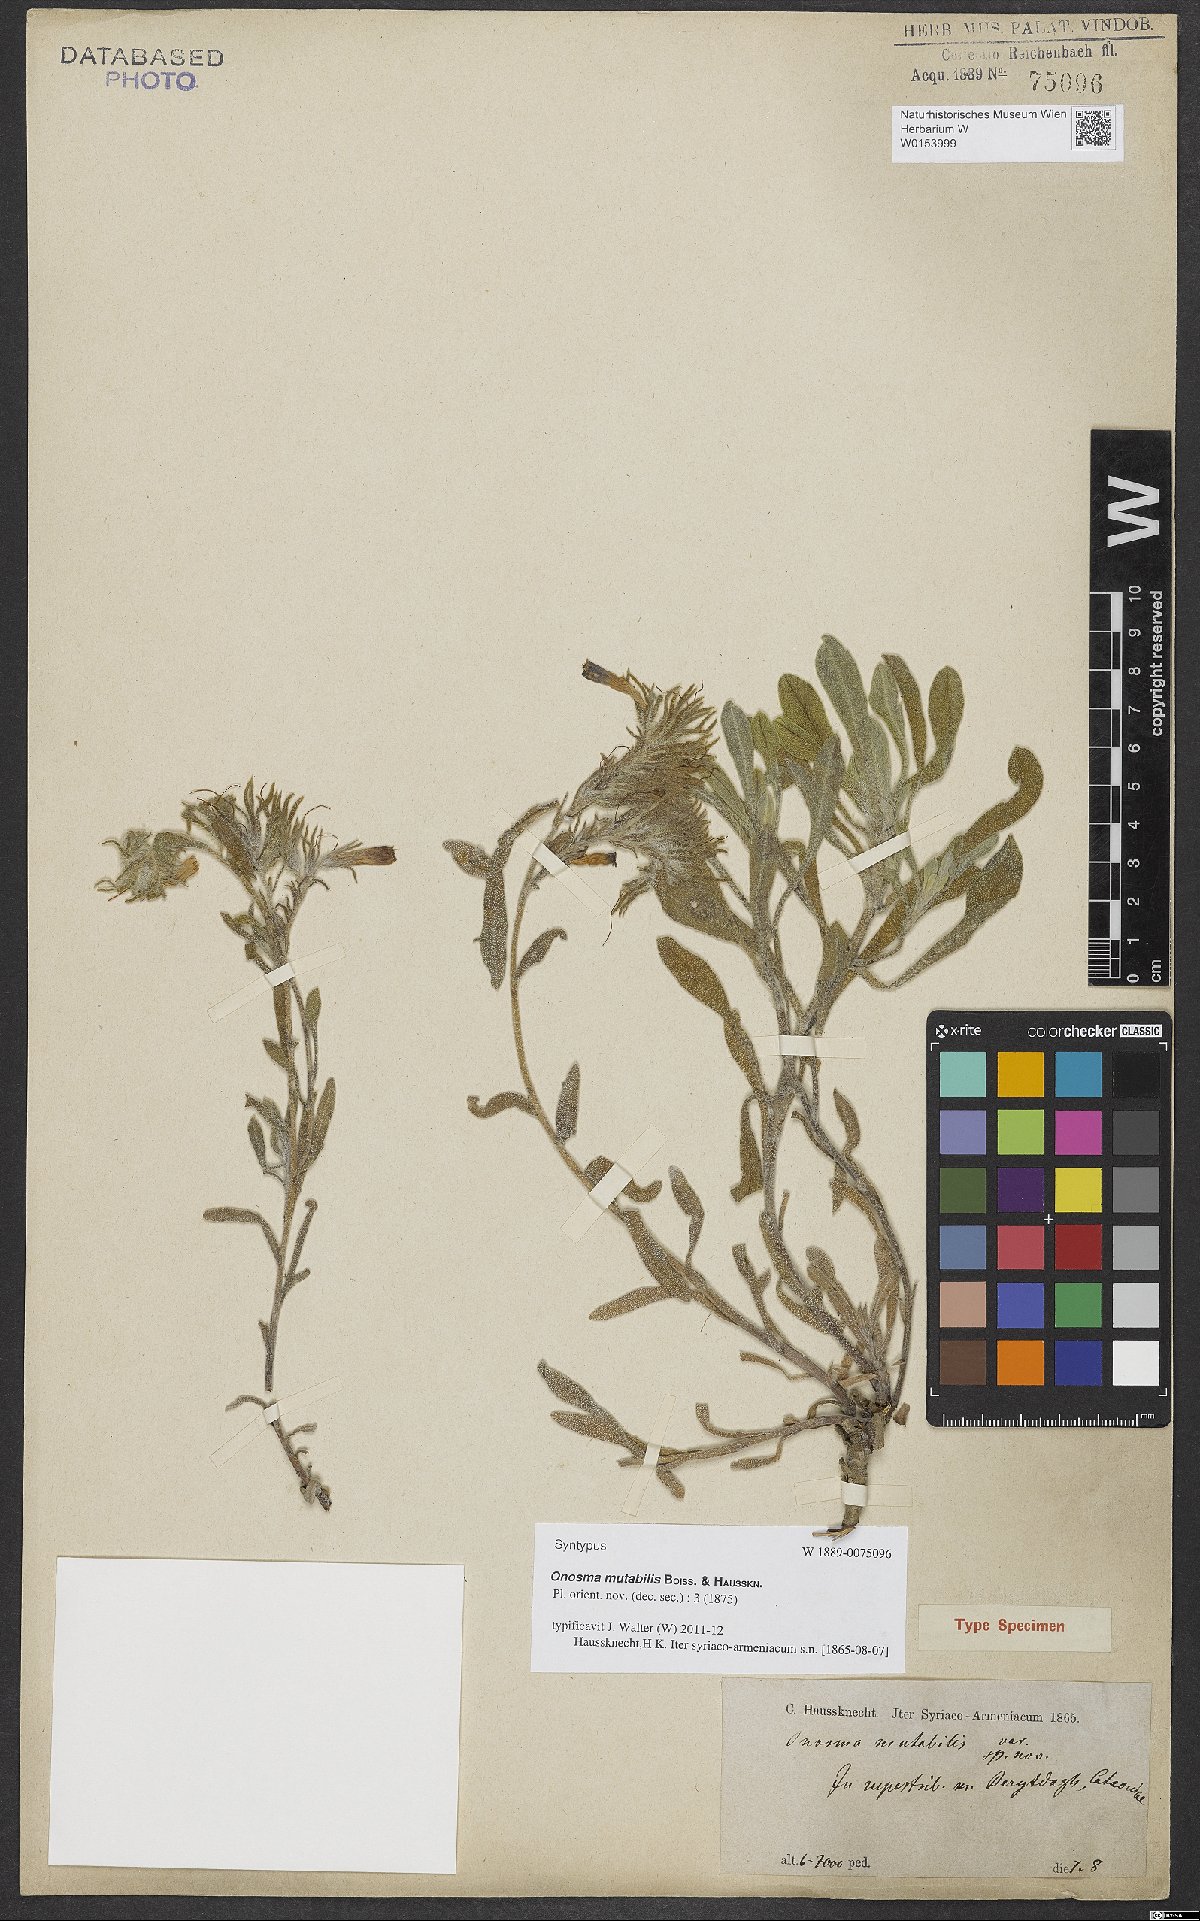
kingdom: Plantae
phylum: Tracheophyta
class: Magnoliopsida
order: Boraginales
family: Boraginaceae
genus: Onosma
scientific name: Onosma alborosea
